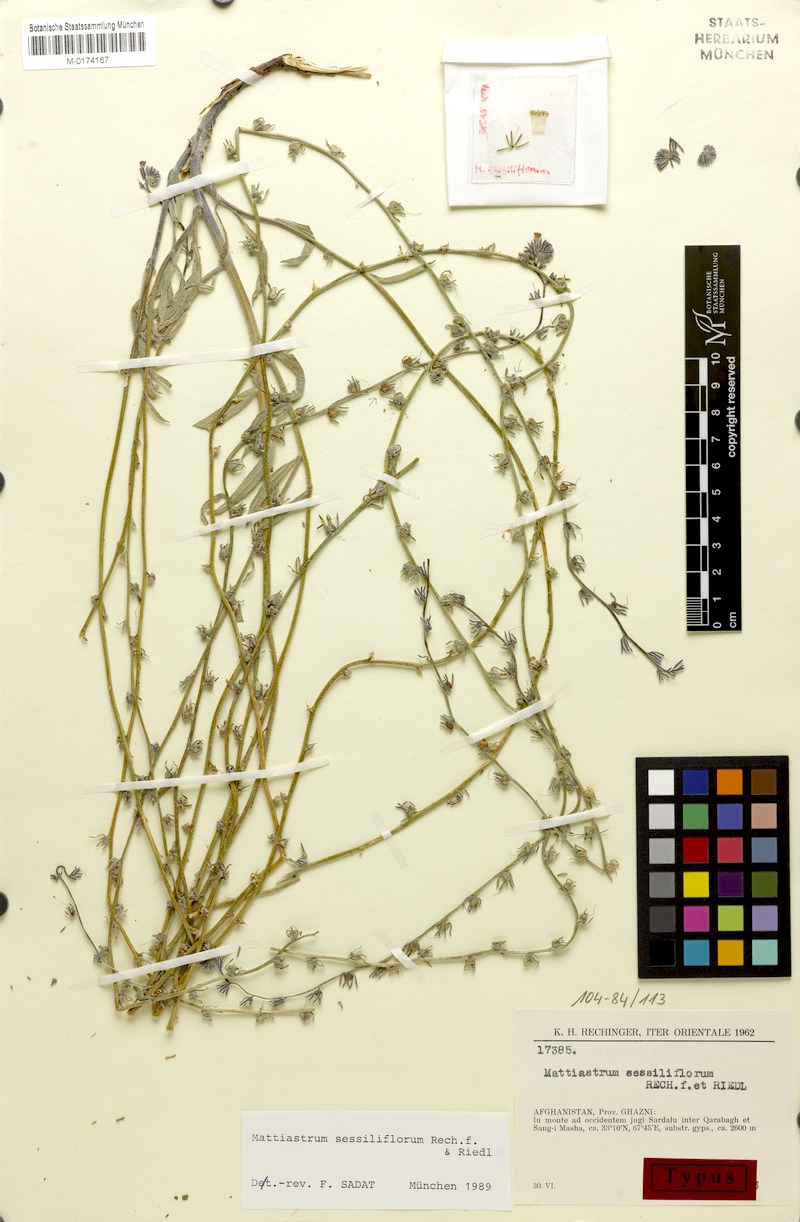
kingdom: Plantae
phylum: Tracheophyta
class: Magnoliopsida
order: Boraginales
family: Boraginaceae
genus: Paracaryum
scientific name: Paracaryum sessiliflorum
